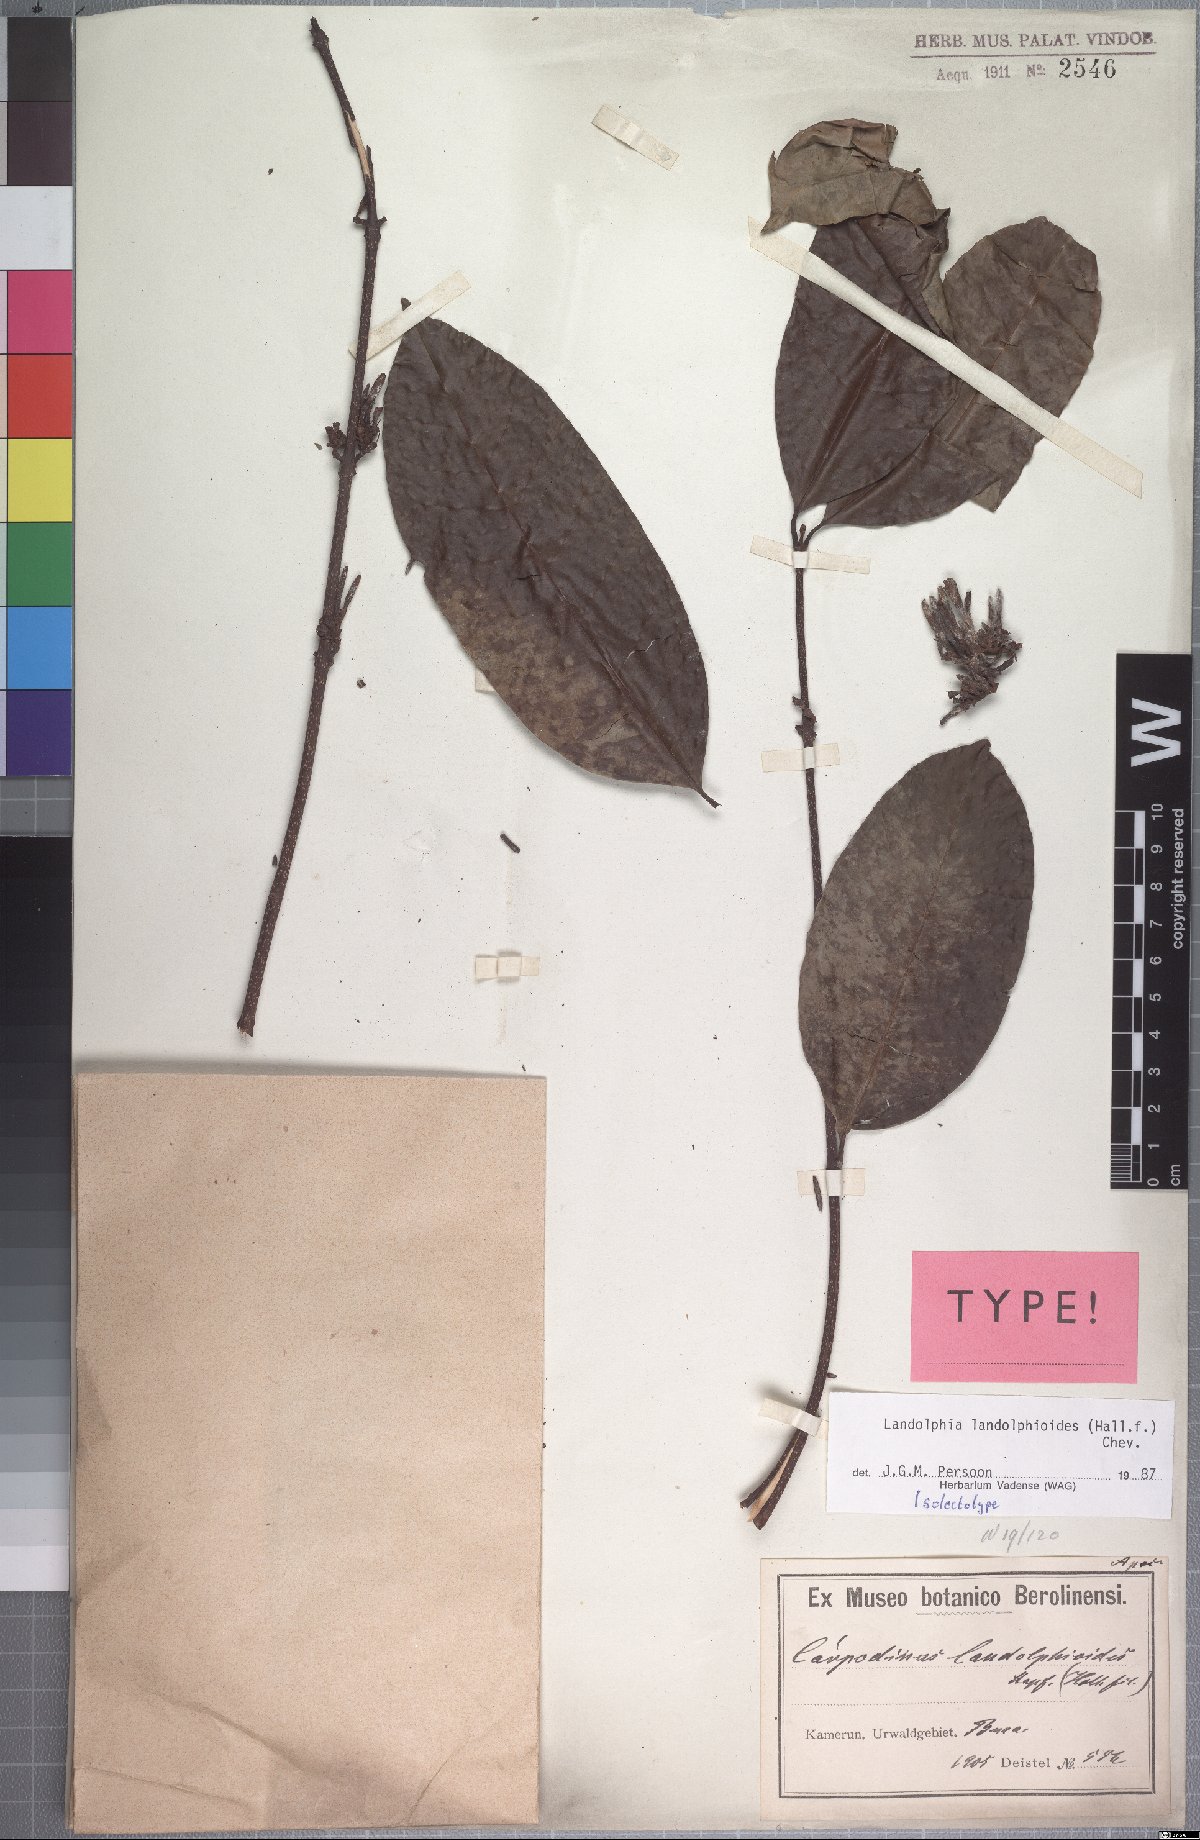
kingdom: Plantae
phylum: Tracheophyta
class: Magnoliopsida
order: Gentianales
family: Apocynaceae
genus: Landolphia
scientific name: Landolphia landolphioides
